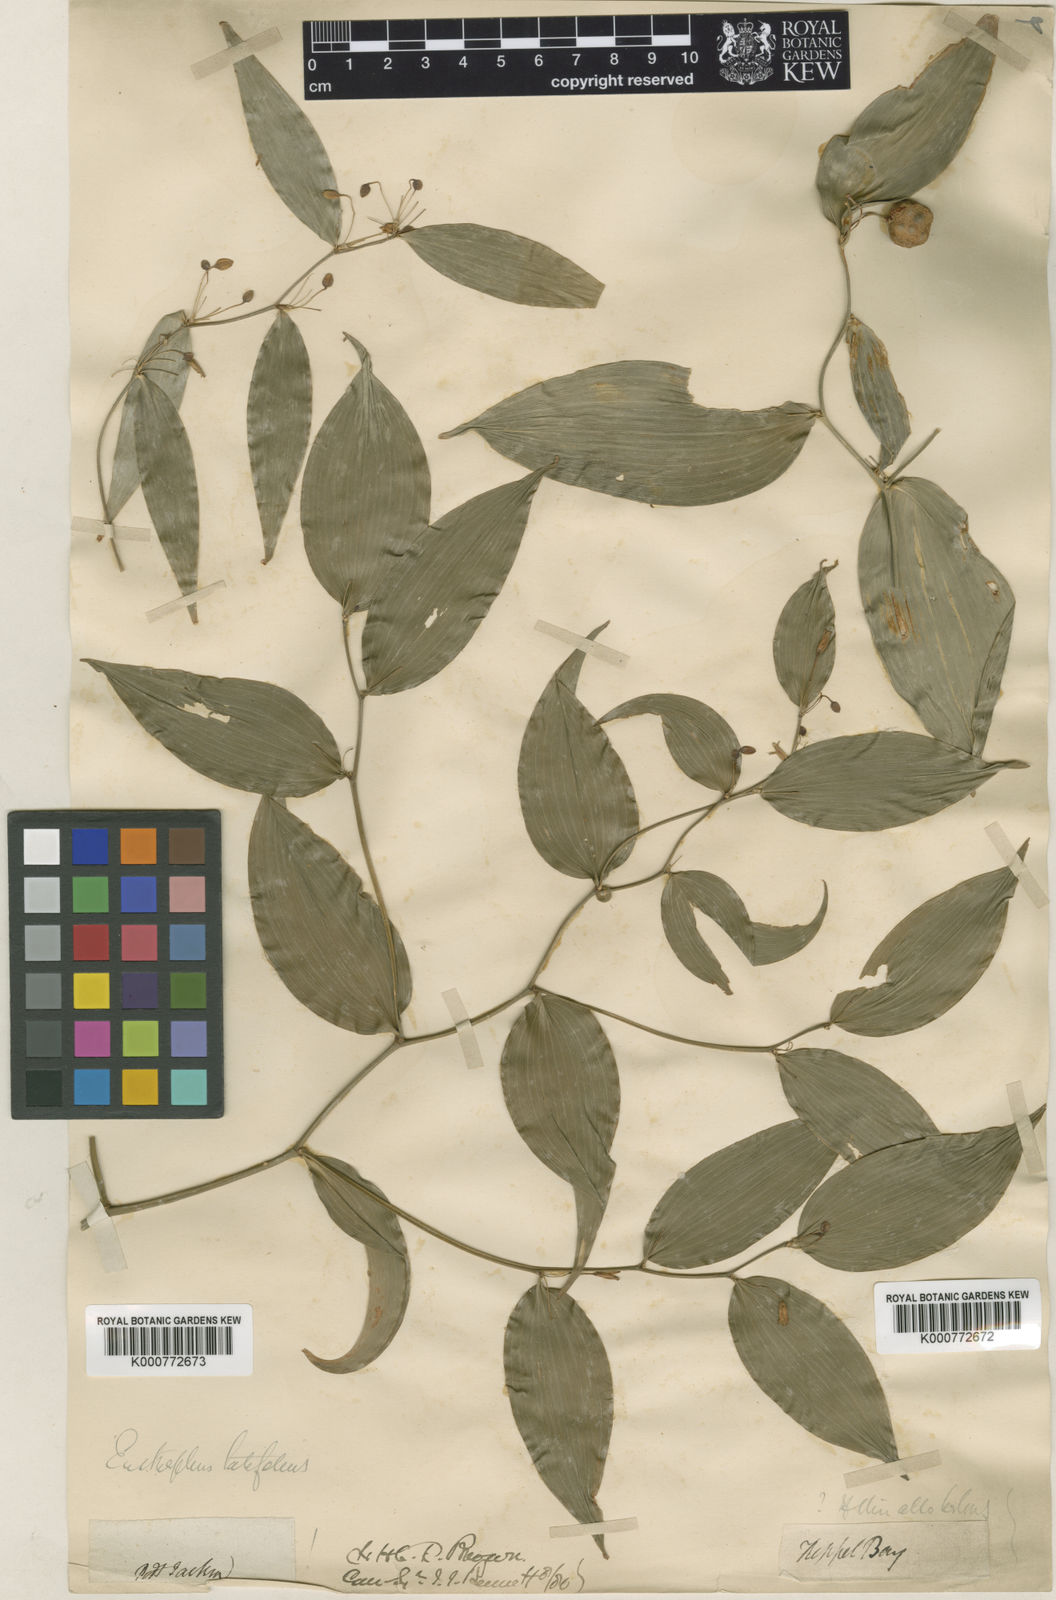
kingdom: Plantae
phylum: Tracheophyta
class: Liliopsida
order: Asparagales
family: Asparagaceae
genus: Eustrephus
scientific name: Eustrephus latifolius
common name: Orangevine
